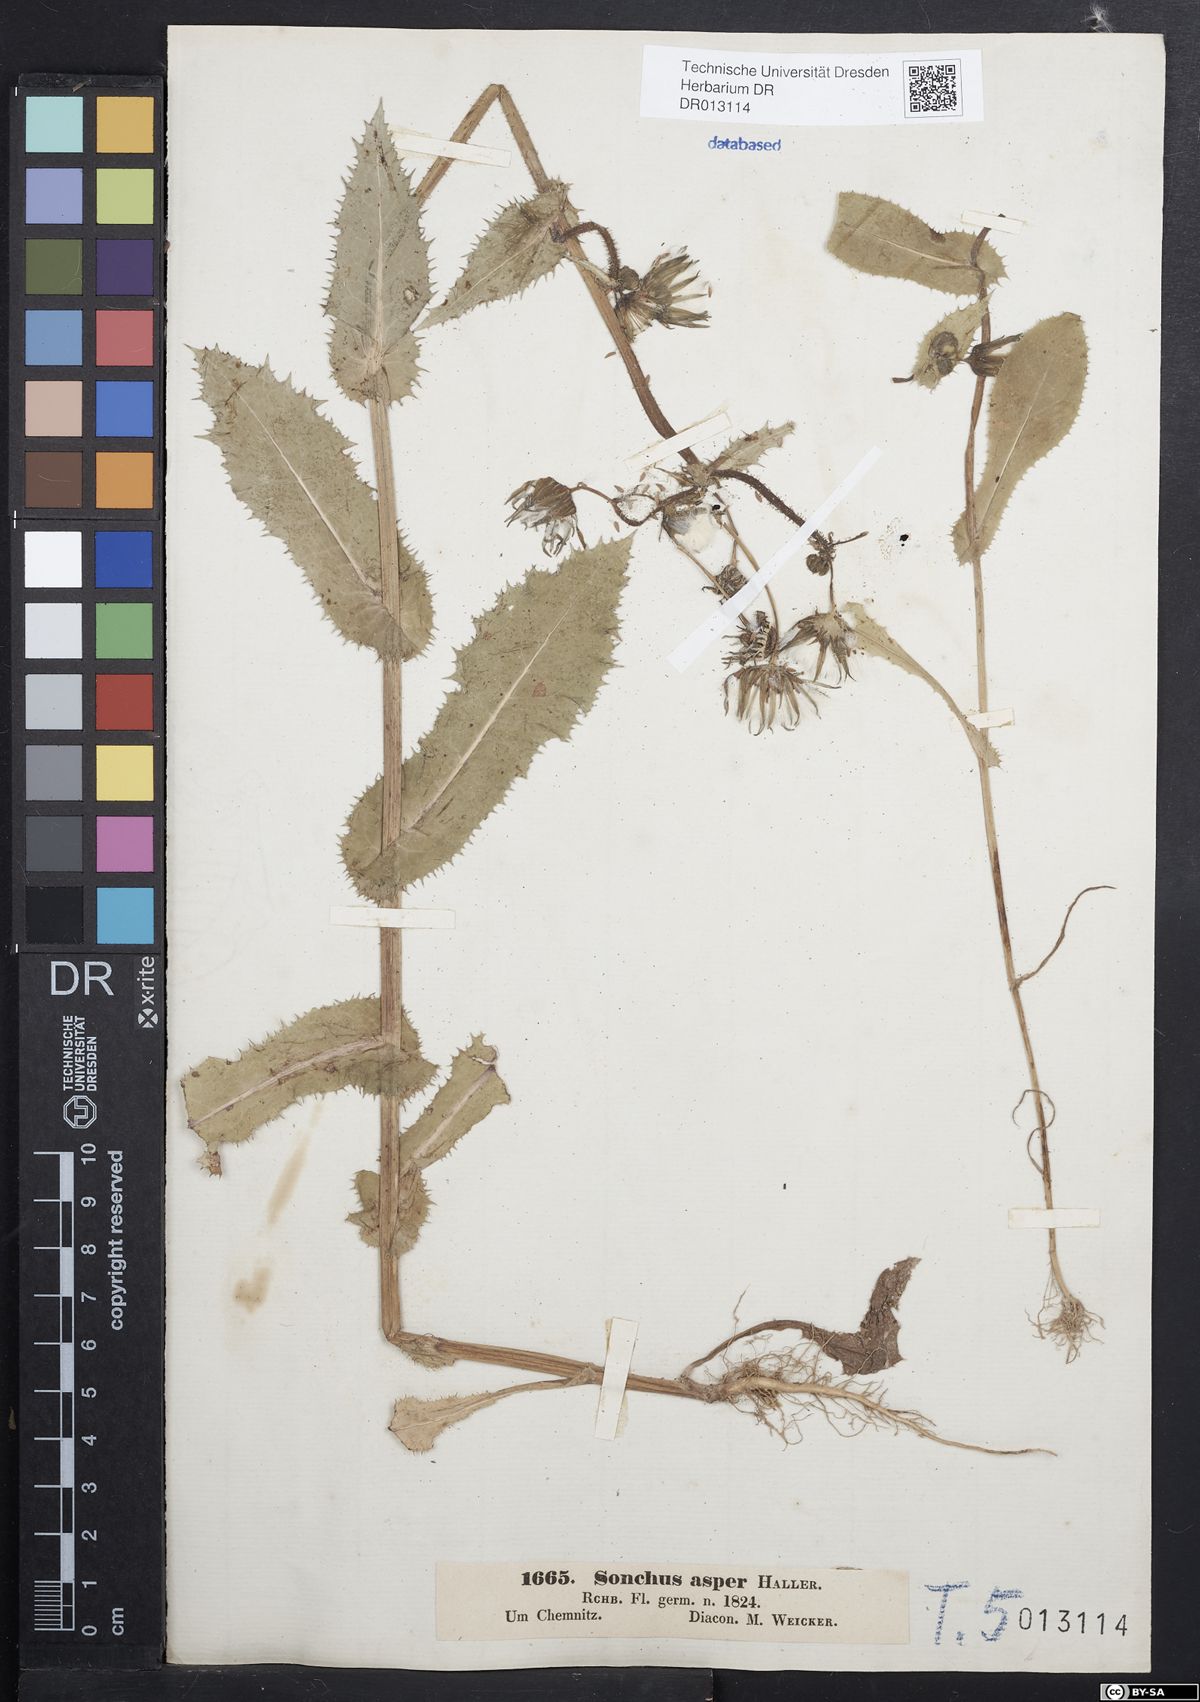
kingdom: Plantae
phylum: Tracheophyta
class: Magnoliopsida
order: Asterales
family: Asteraceae
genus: Sonchus
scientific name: Sonchus asper
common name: Prickly sow-thistle
